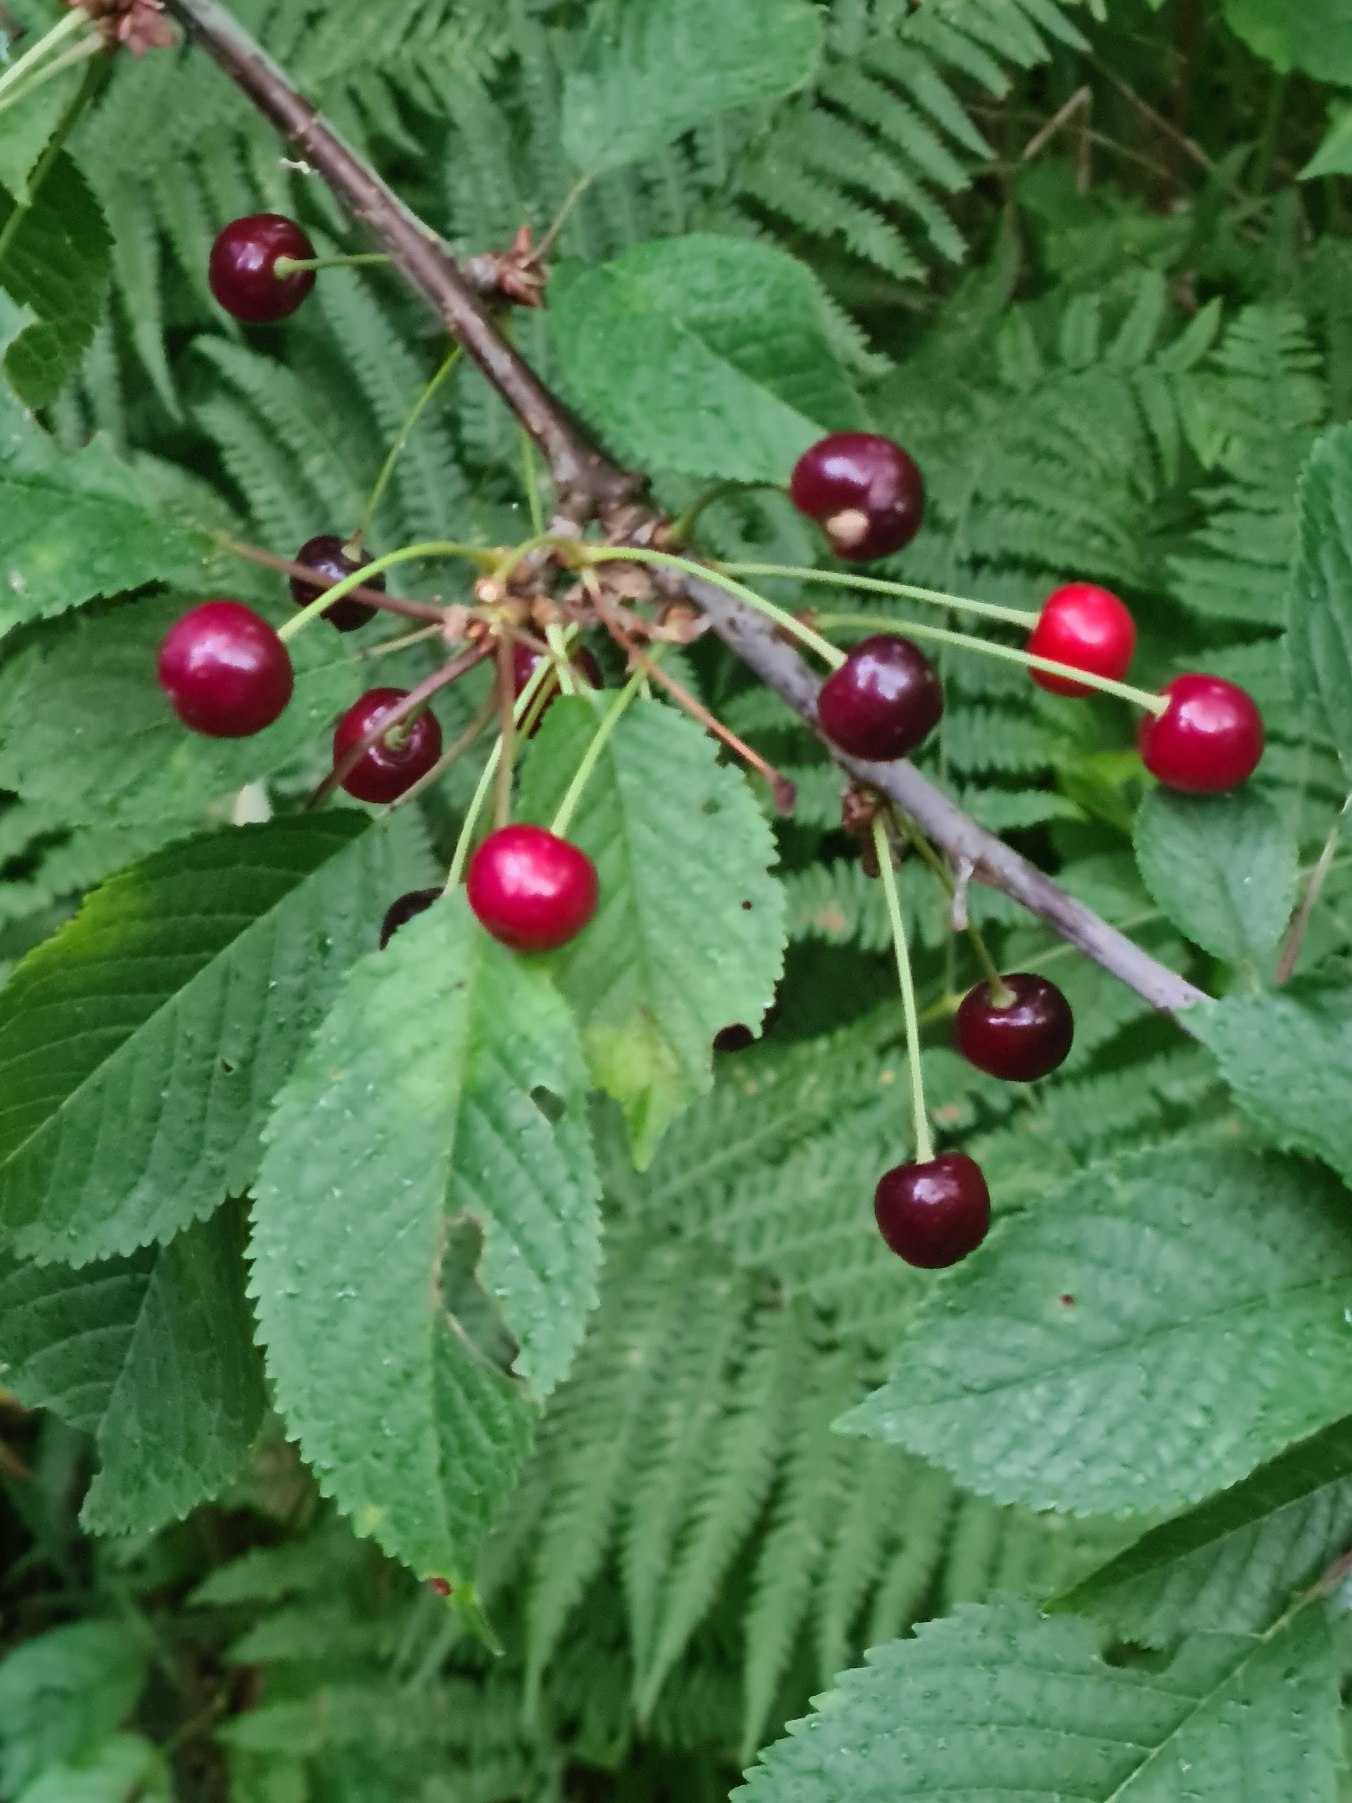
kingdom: Plantae
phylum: Tracheophyta
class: Magnoliopsida
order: Rosales
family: Rosaceae
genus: Prunus
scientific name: Prunus avium
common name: Fugle-kirsebær
